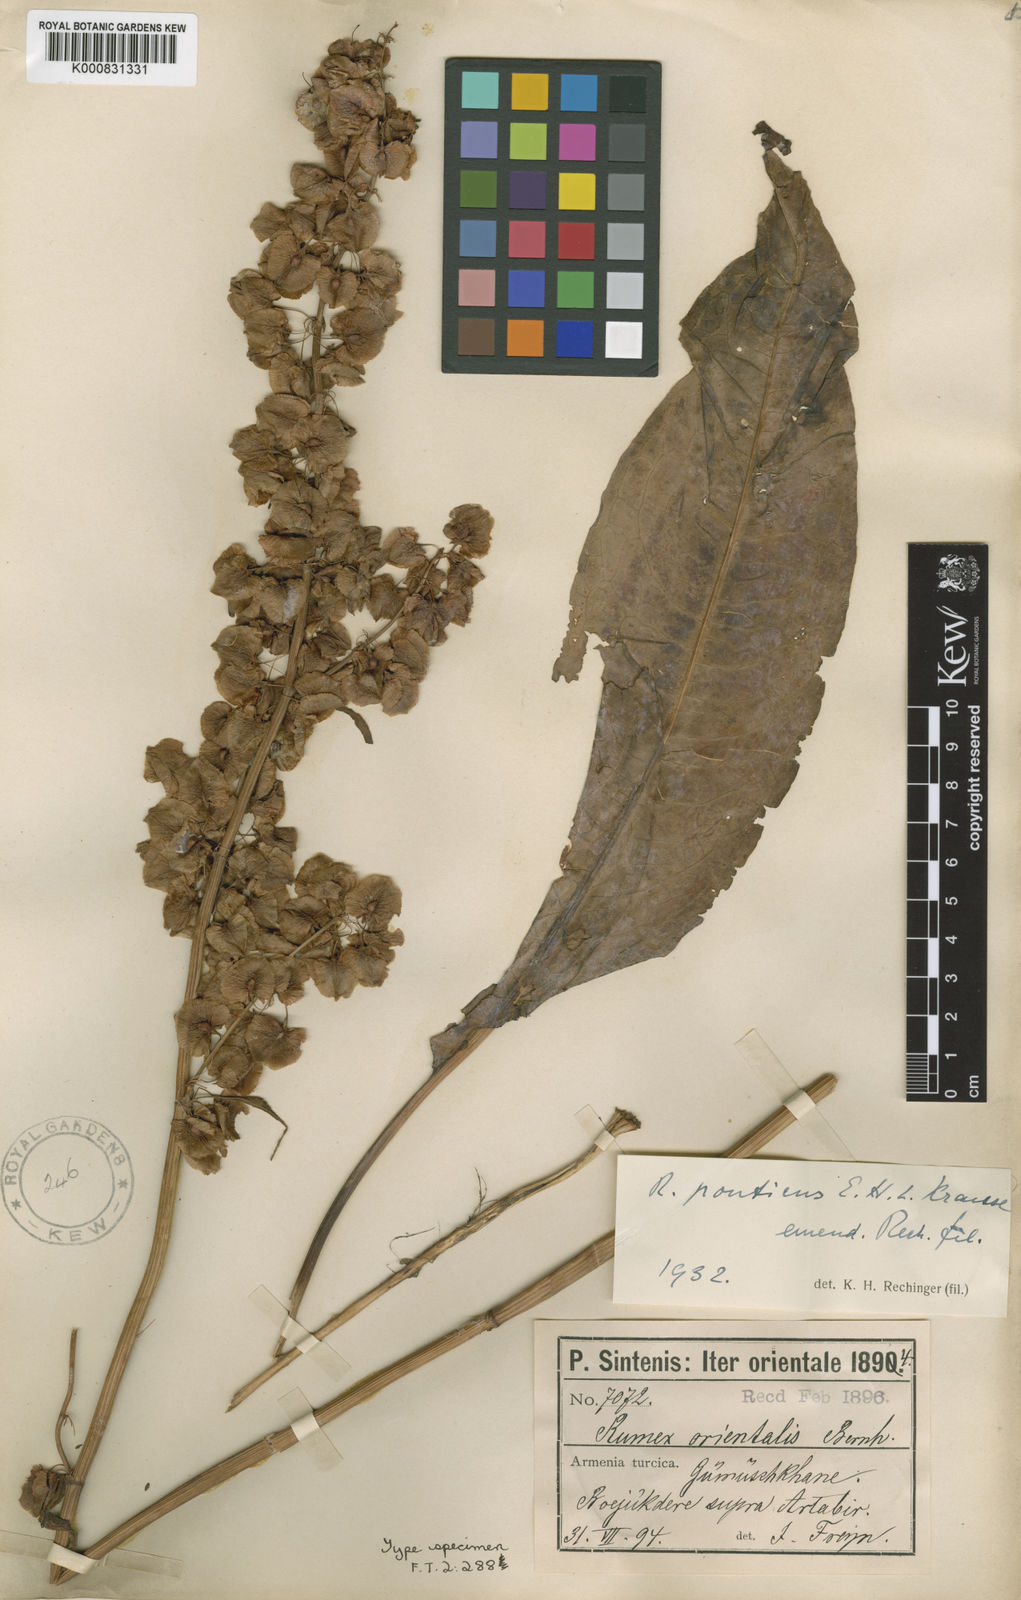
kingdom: Plantae
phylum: Tracheophyta
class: Magnoliopsida
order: Caryophyllales
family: Polygonaceae
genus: Rumex
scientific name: Rumex ponticus
